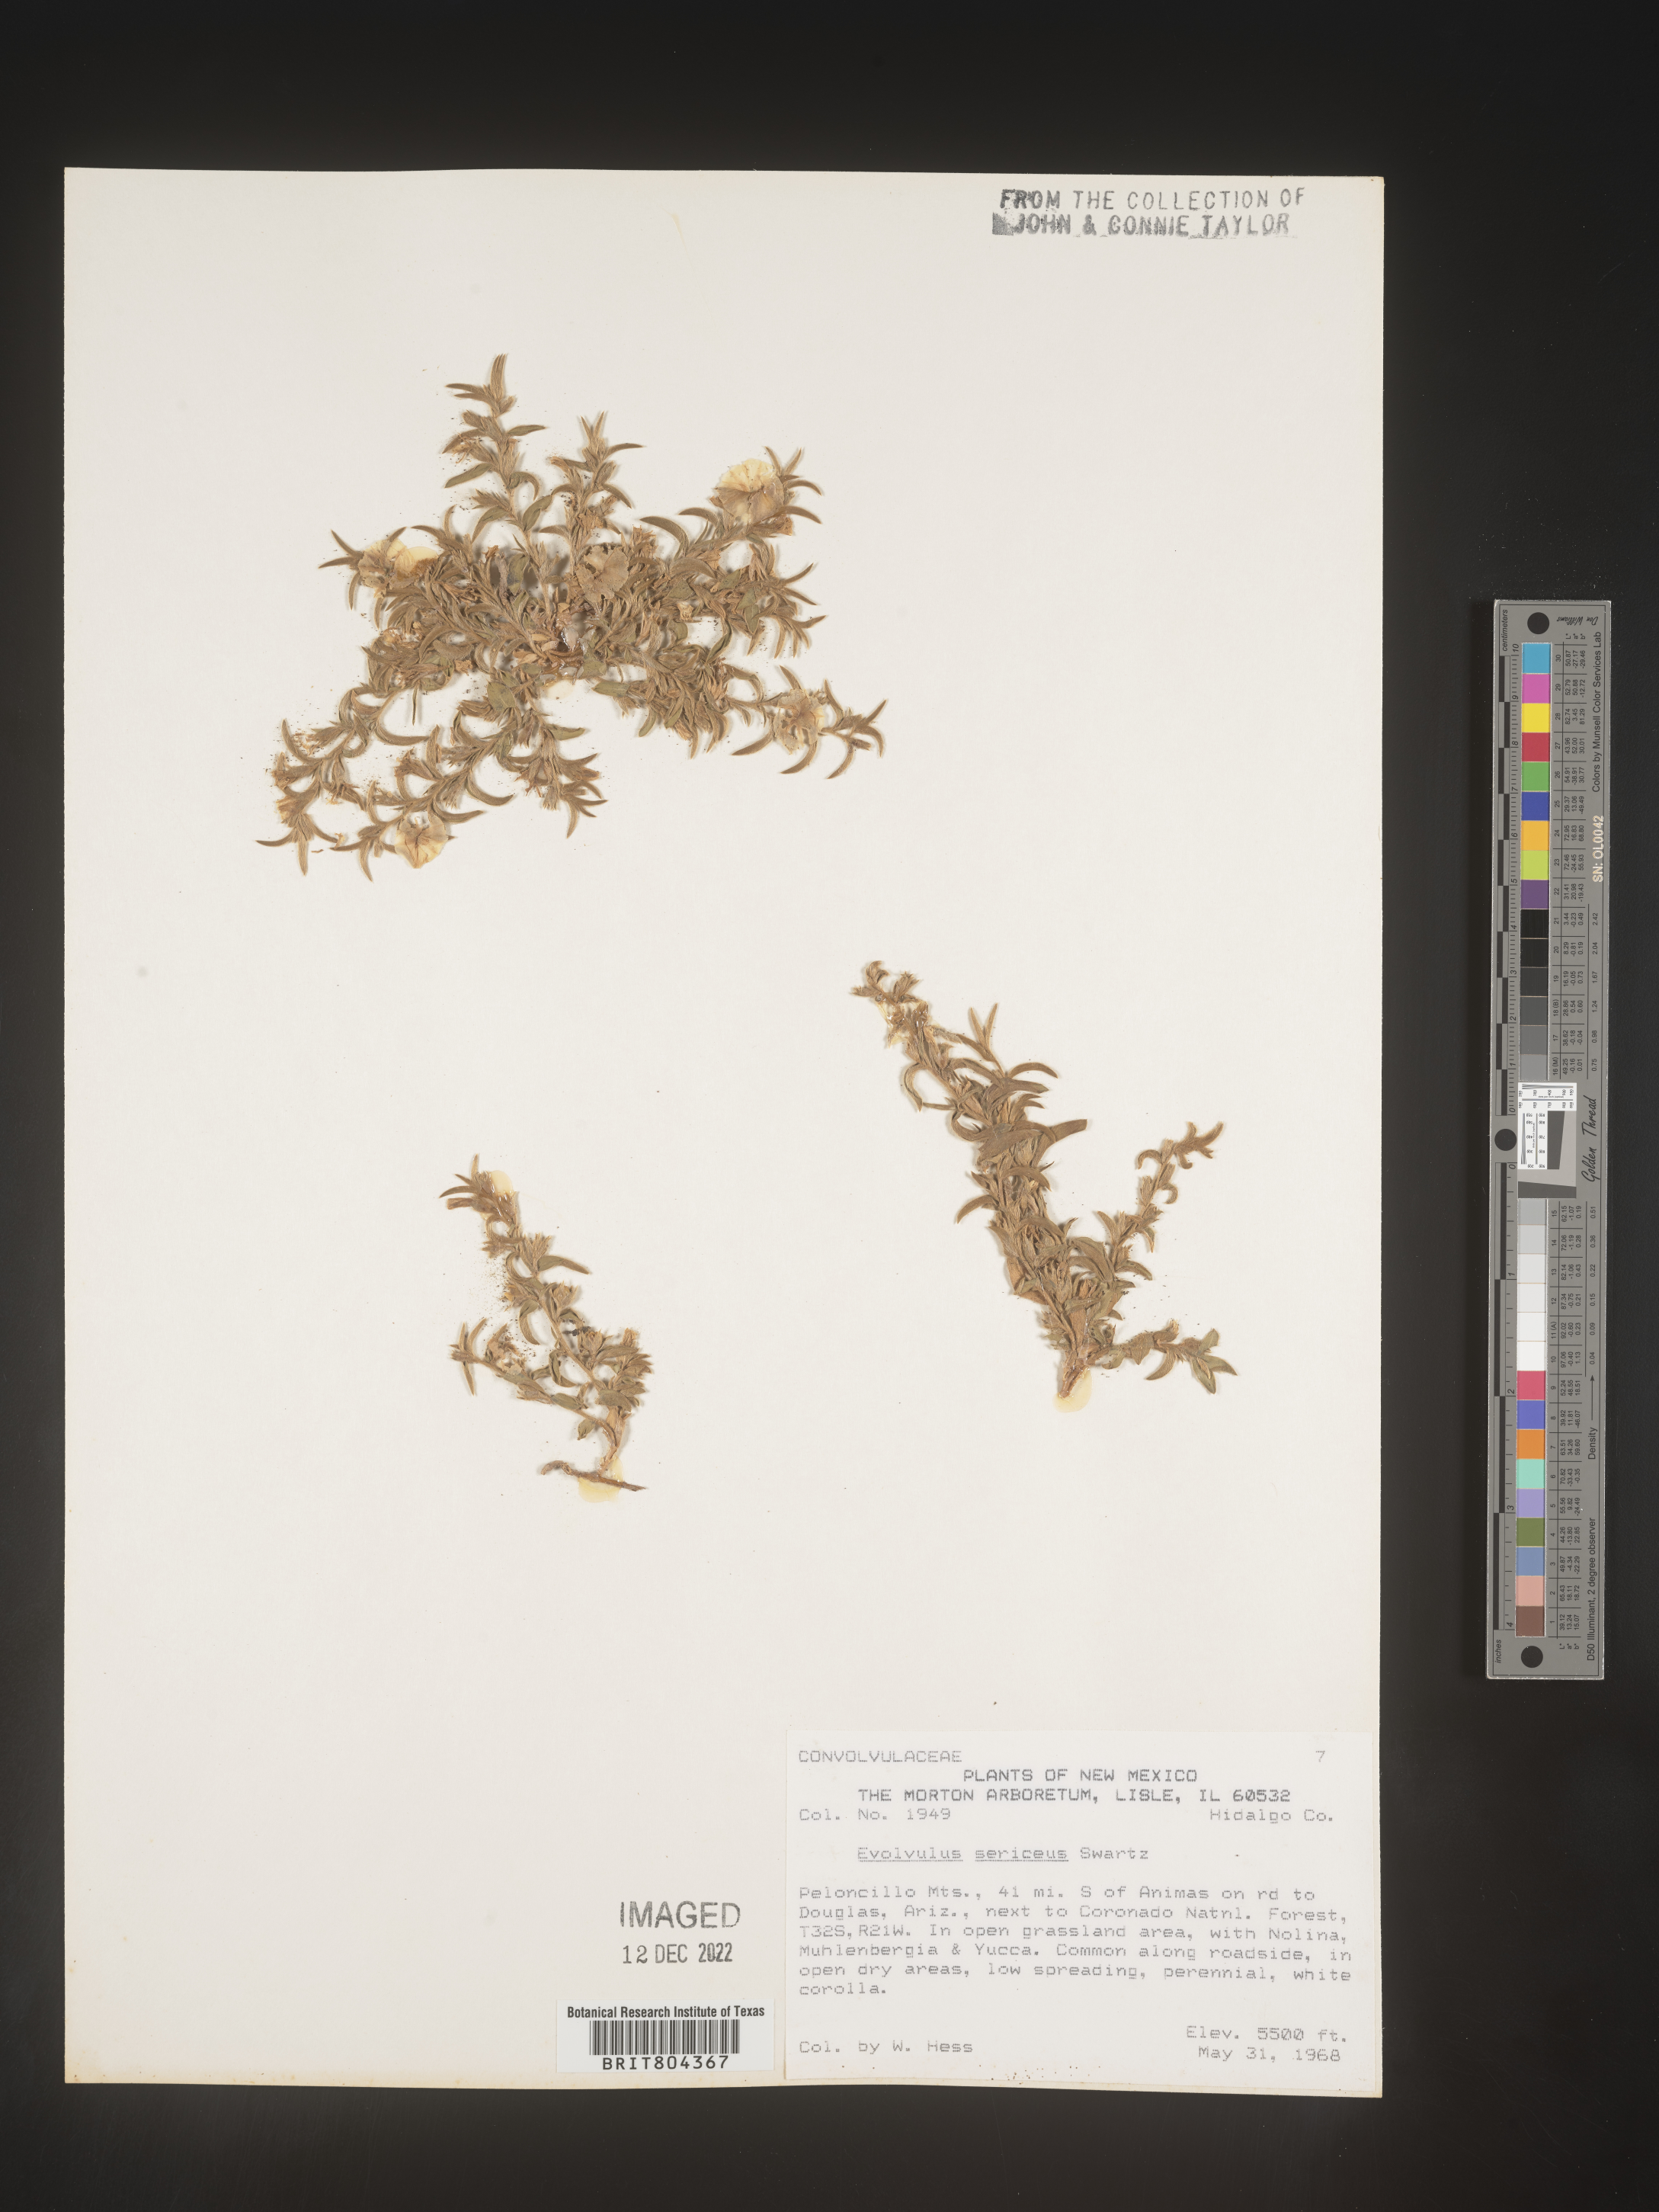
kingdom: Plantae
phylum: Tracheophyta
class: Magnoliopsida
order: Solanales
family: Convolvulaceae
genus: Evolvulus
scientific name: Evolvulus sericeus
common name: Blue dots
